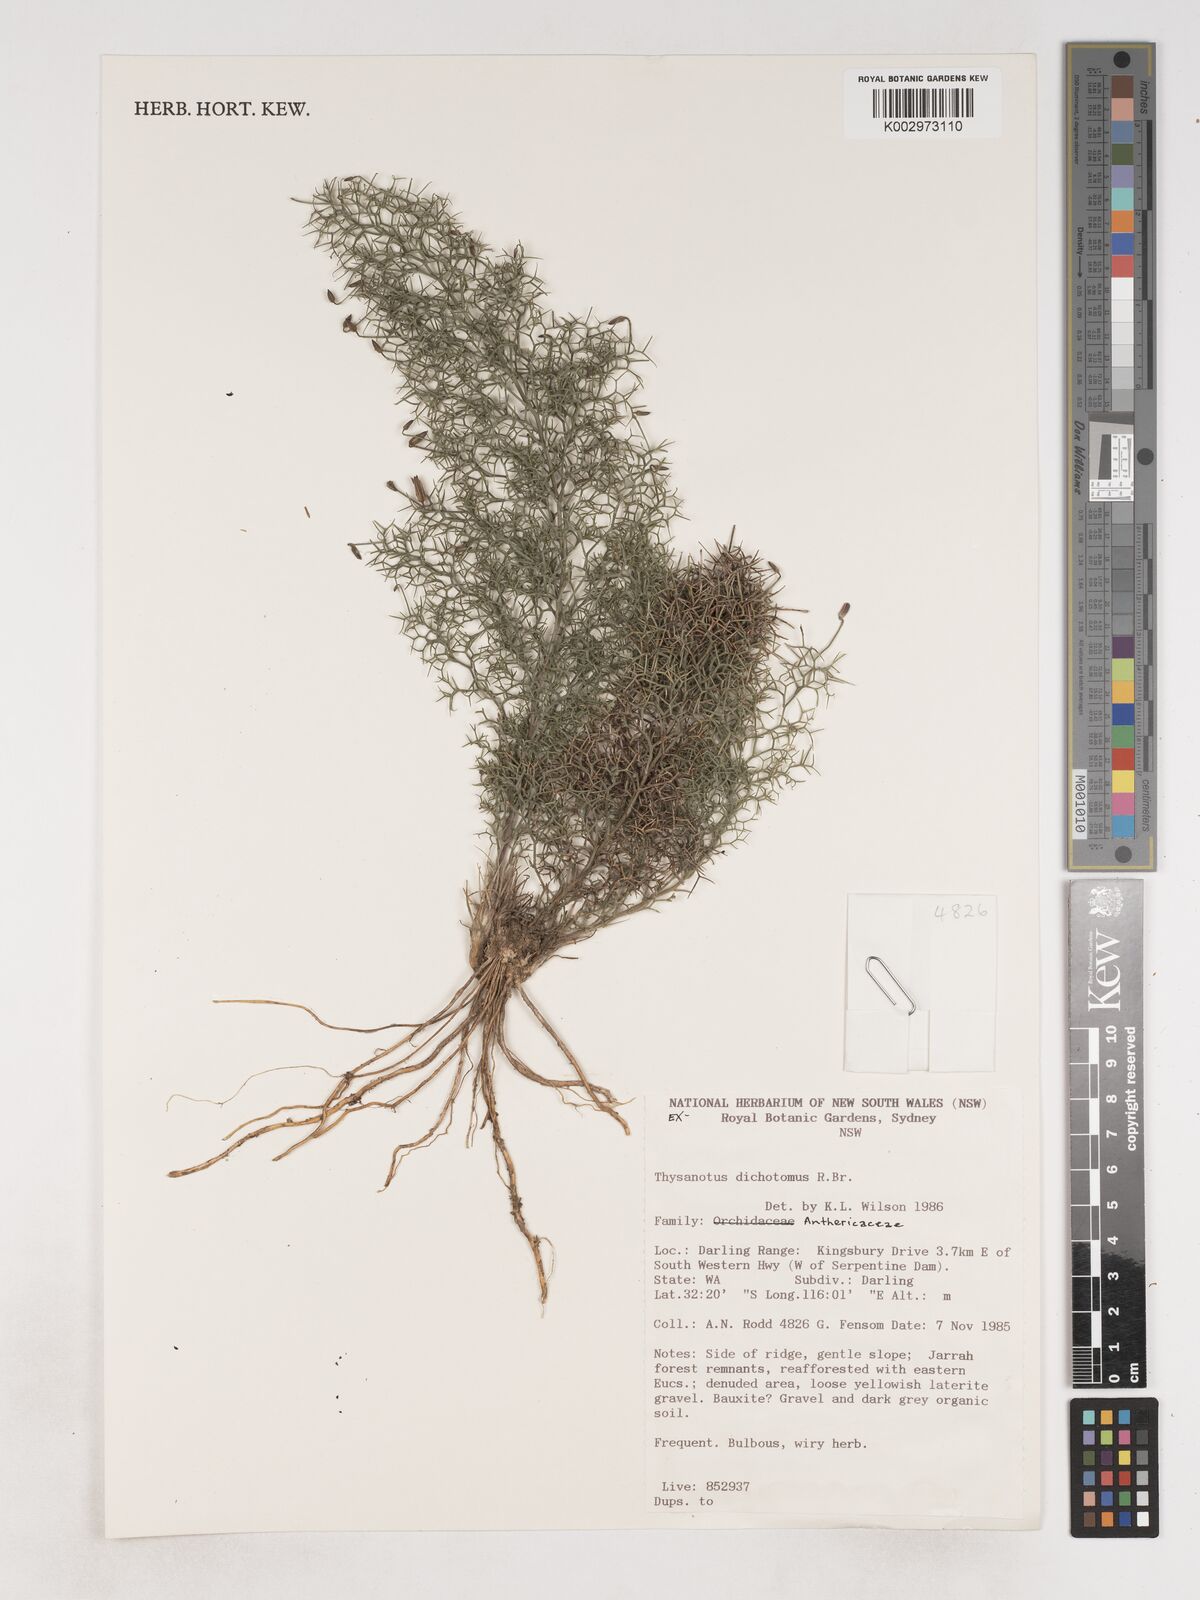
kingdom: Plantae
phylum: Tracheophyta
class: Liliopsida
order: Asparagales
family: Asparagaceae
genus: Thysanotus
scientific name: Thysanotus dichotomus
